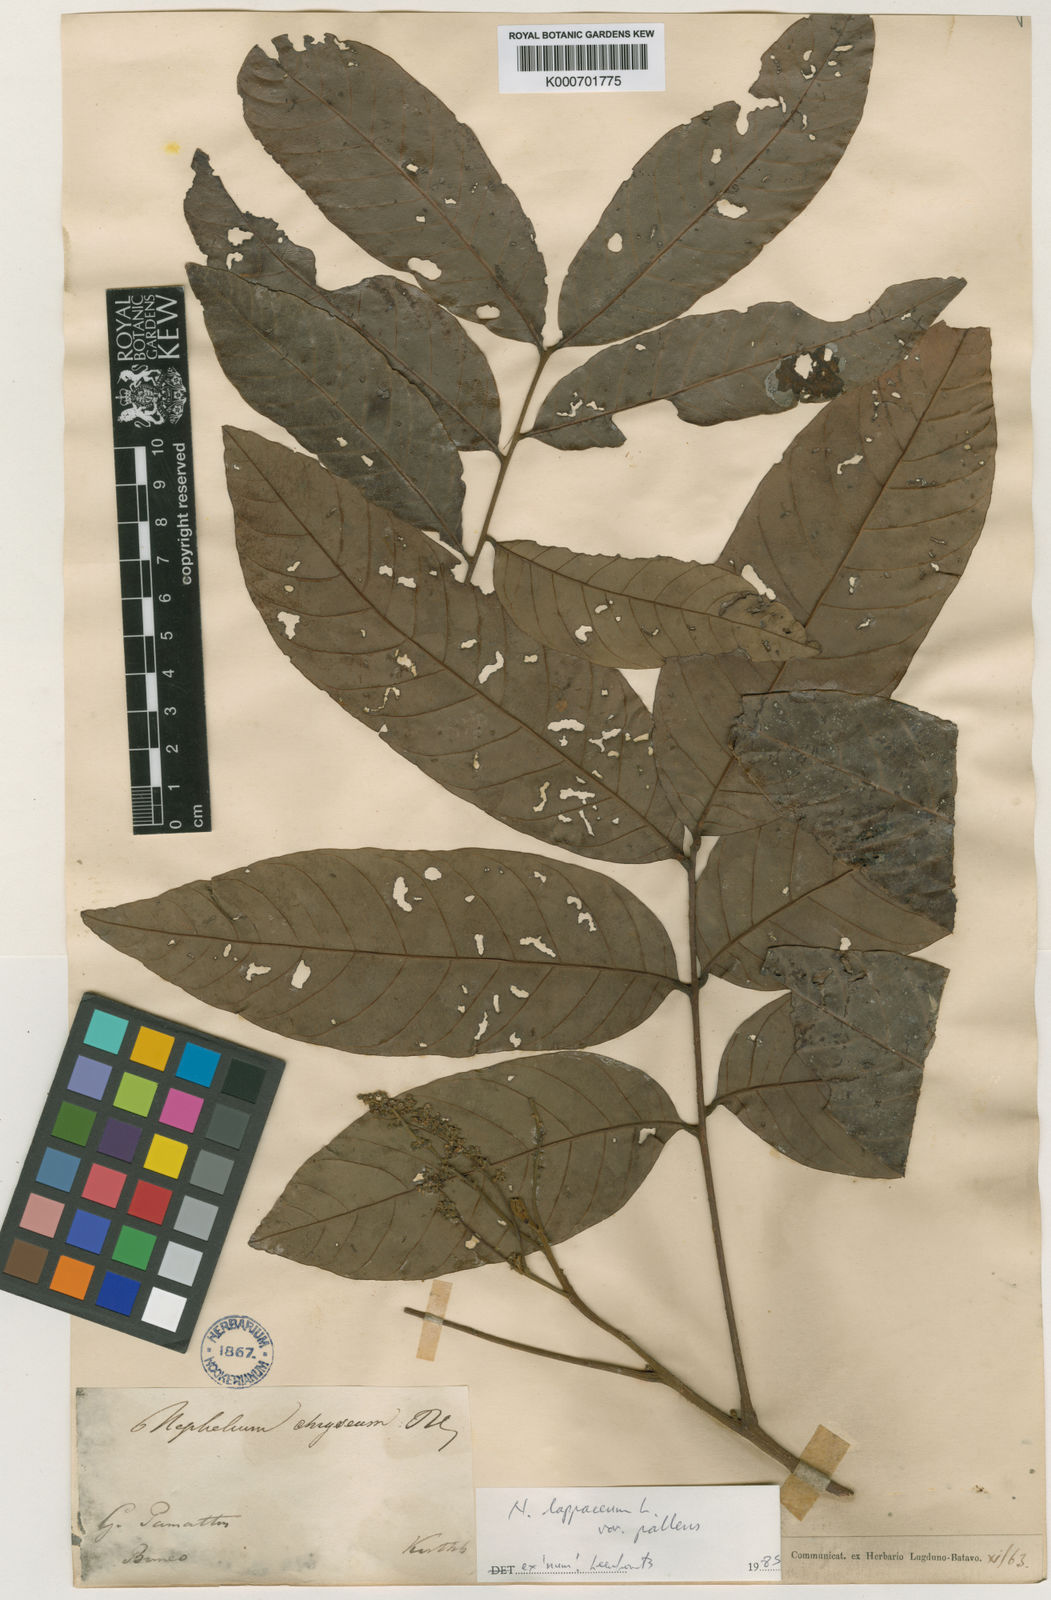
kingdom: Plantae
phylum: Tracheophyta
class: Magnoliopsida
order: Sapindales
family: Sapindaceae
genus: Nephelium
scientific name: Nephelium lappaceum
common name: Rambutan
